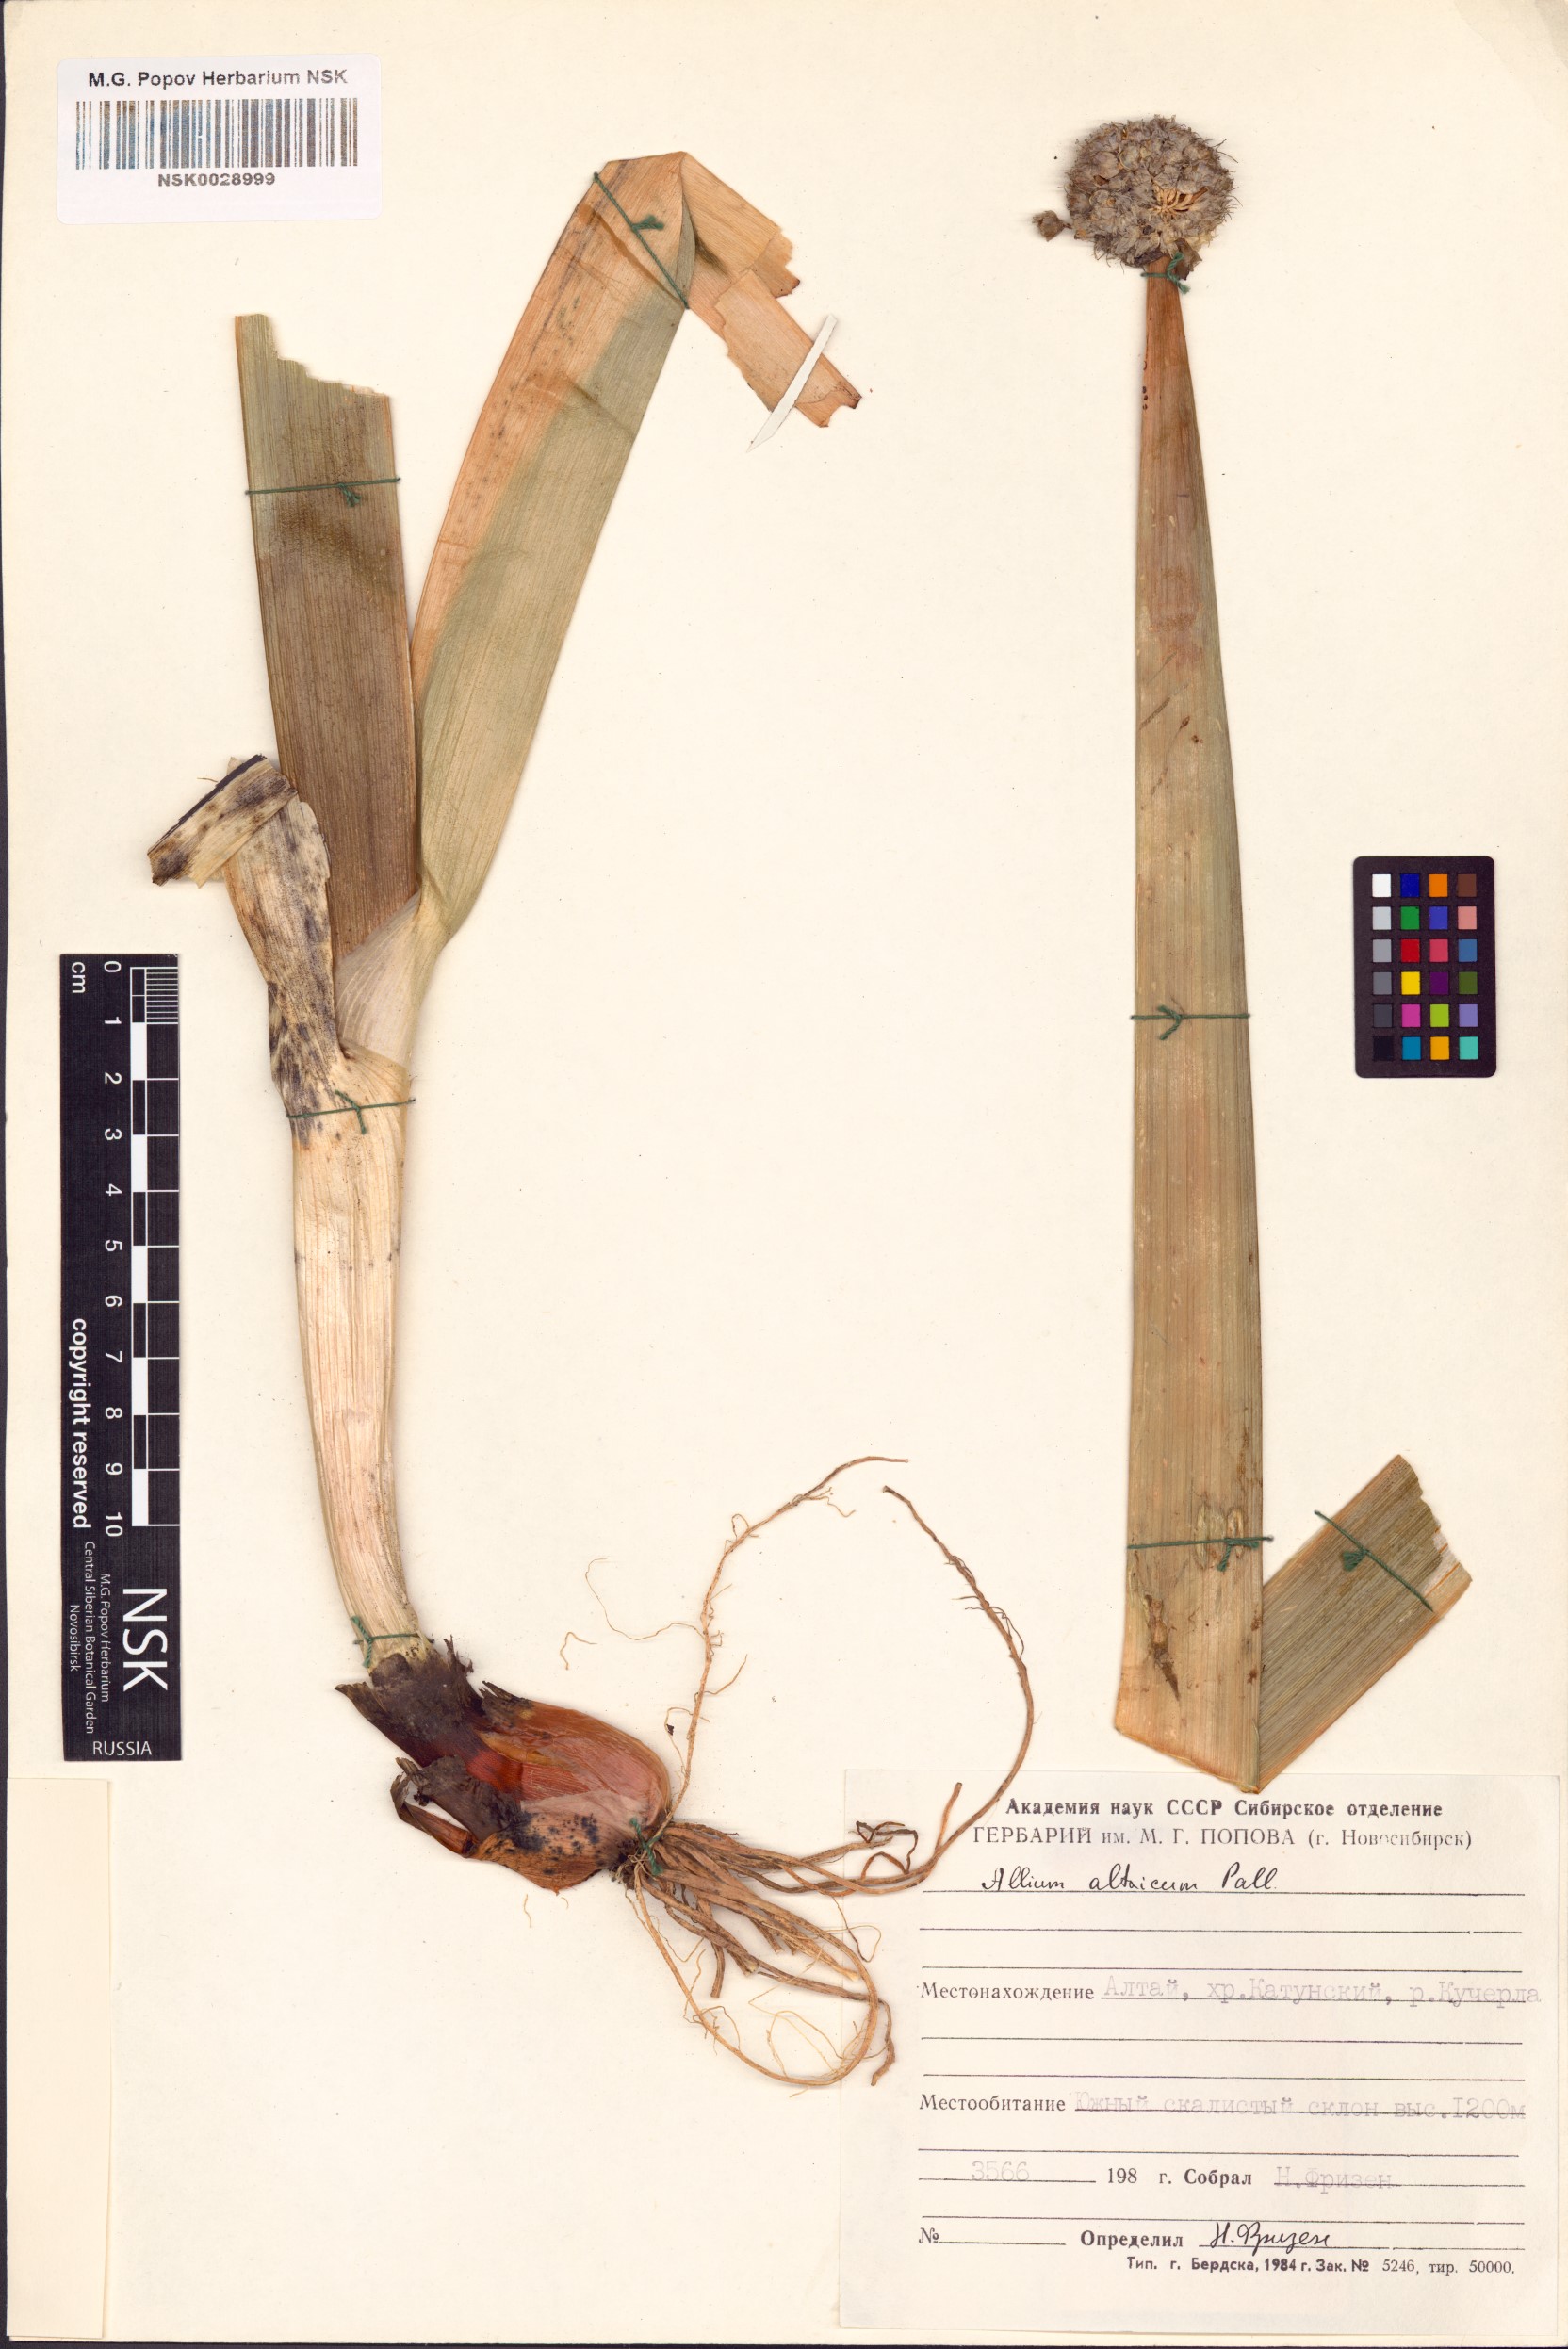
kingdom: Plantae
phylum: Tracheophyta
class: Liliopsida
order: Asparagales
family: Amaryllidaceae
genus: Allium
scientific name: Allium altaicum
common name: Altai onion
